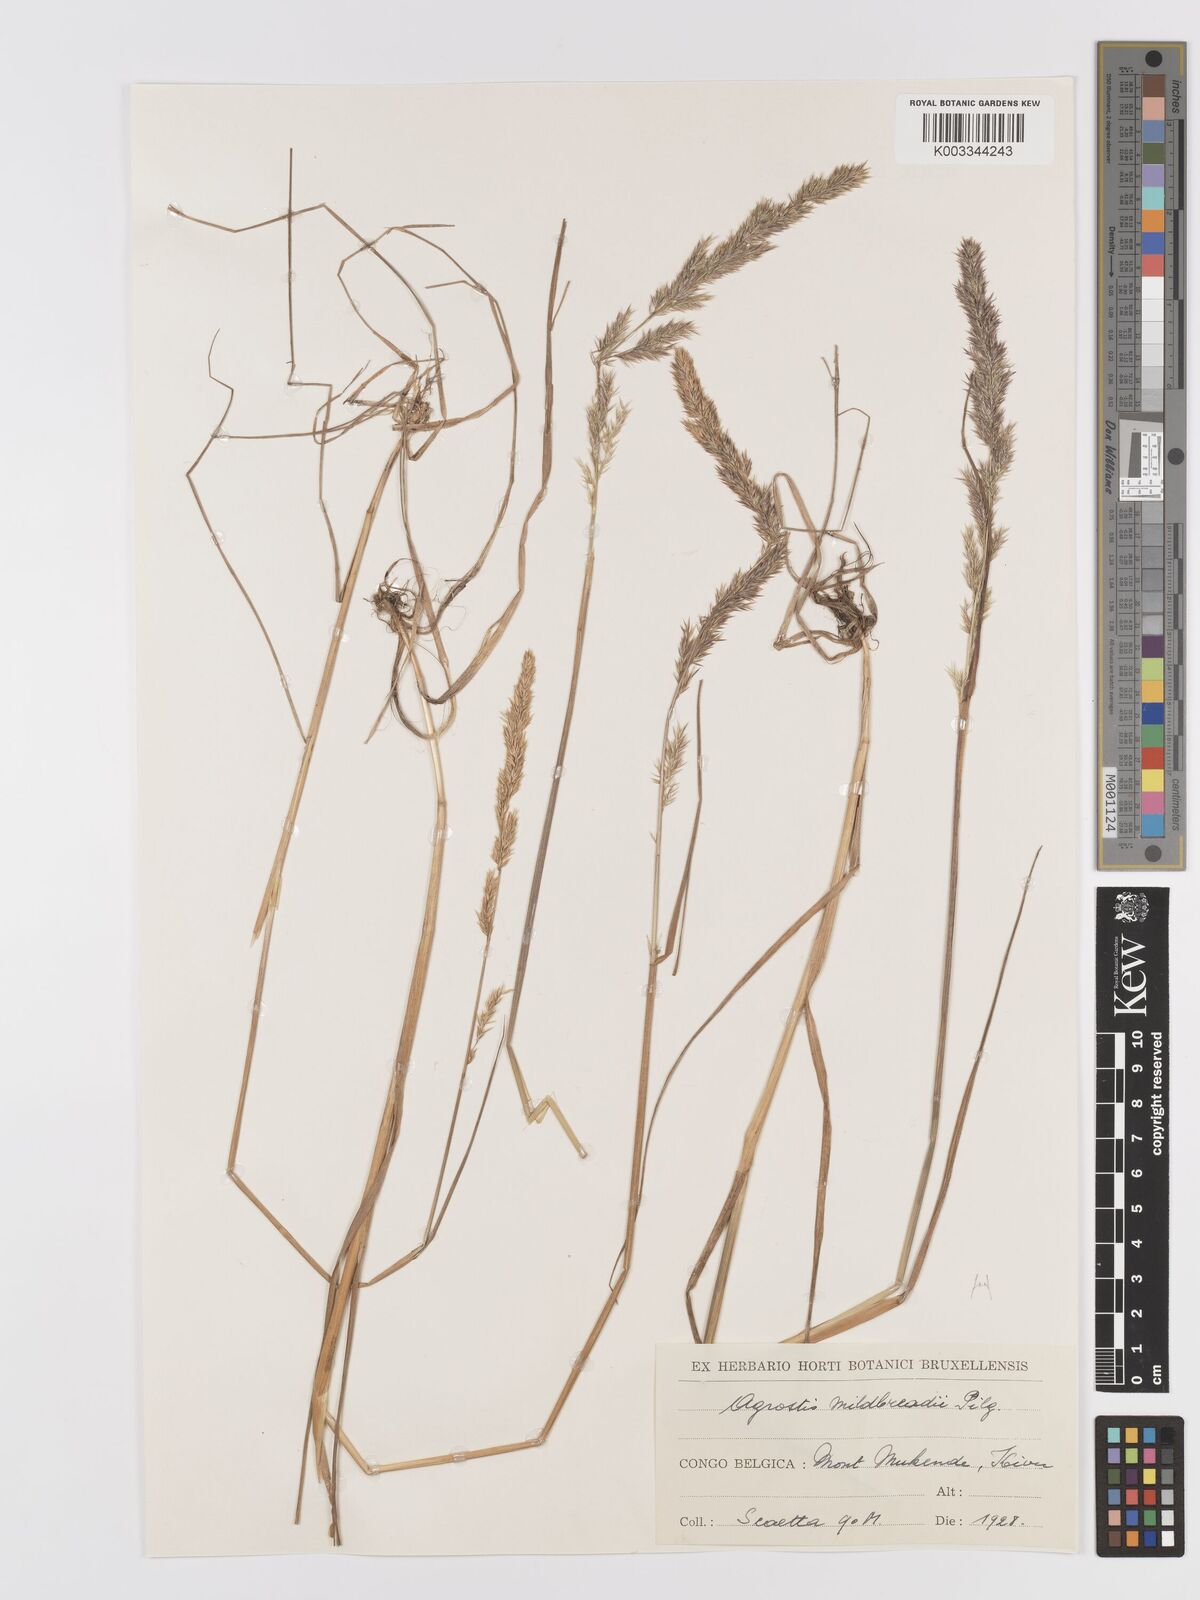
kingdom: Plantae
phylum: Tracheophyta
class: Liliopsida
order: Poales
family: Poaceae
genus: Agrostis
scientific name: Agrostis quinqueseta
